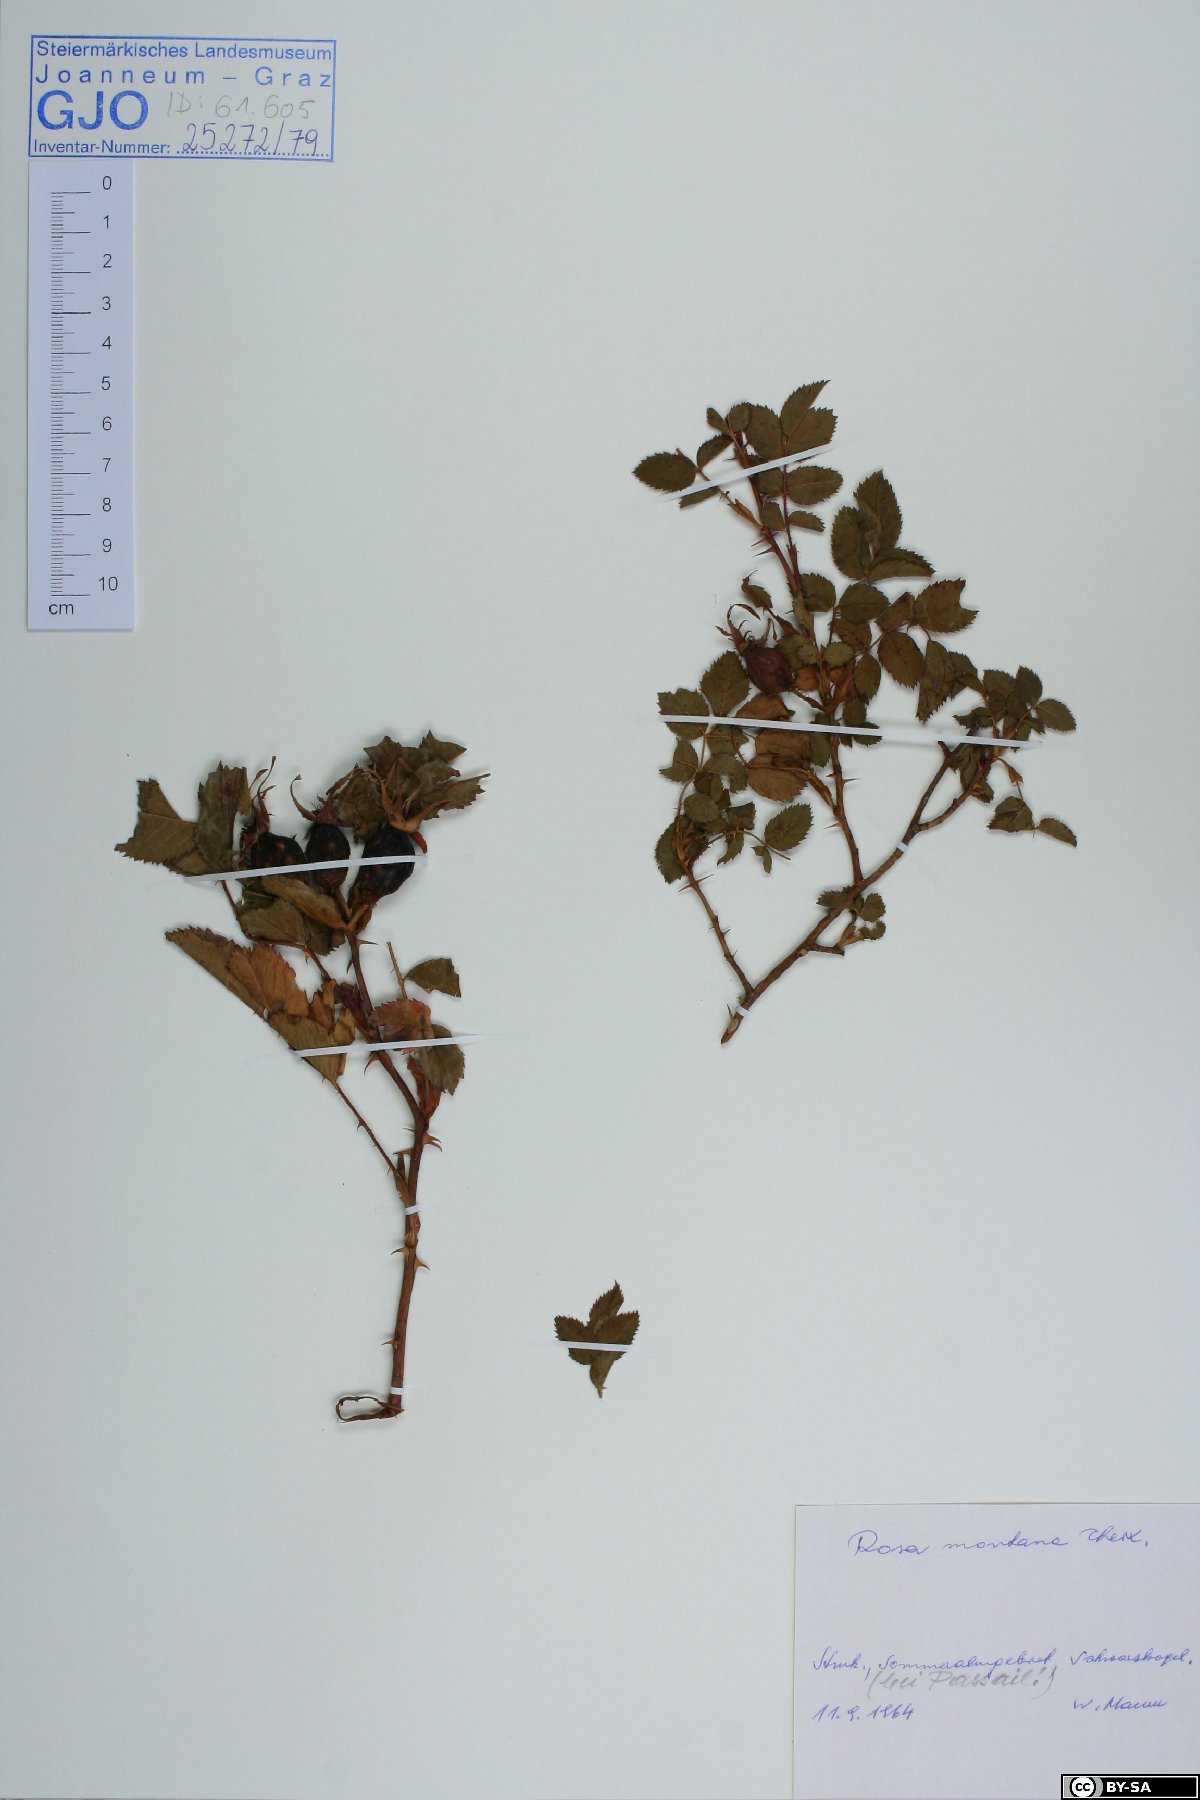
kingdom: Plantae
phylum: Tracheophyta
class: Magnoliopsida
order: Rosales
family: Rosaceae
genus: Rosa
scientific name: Rosa montana
